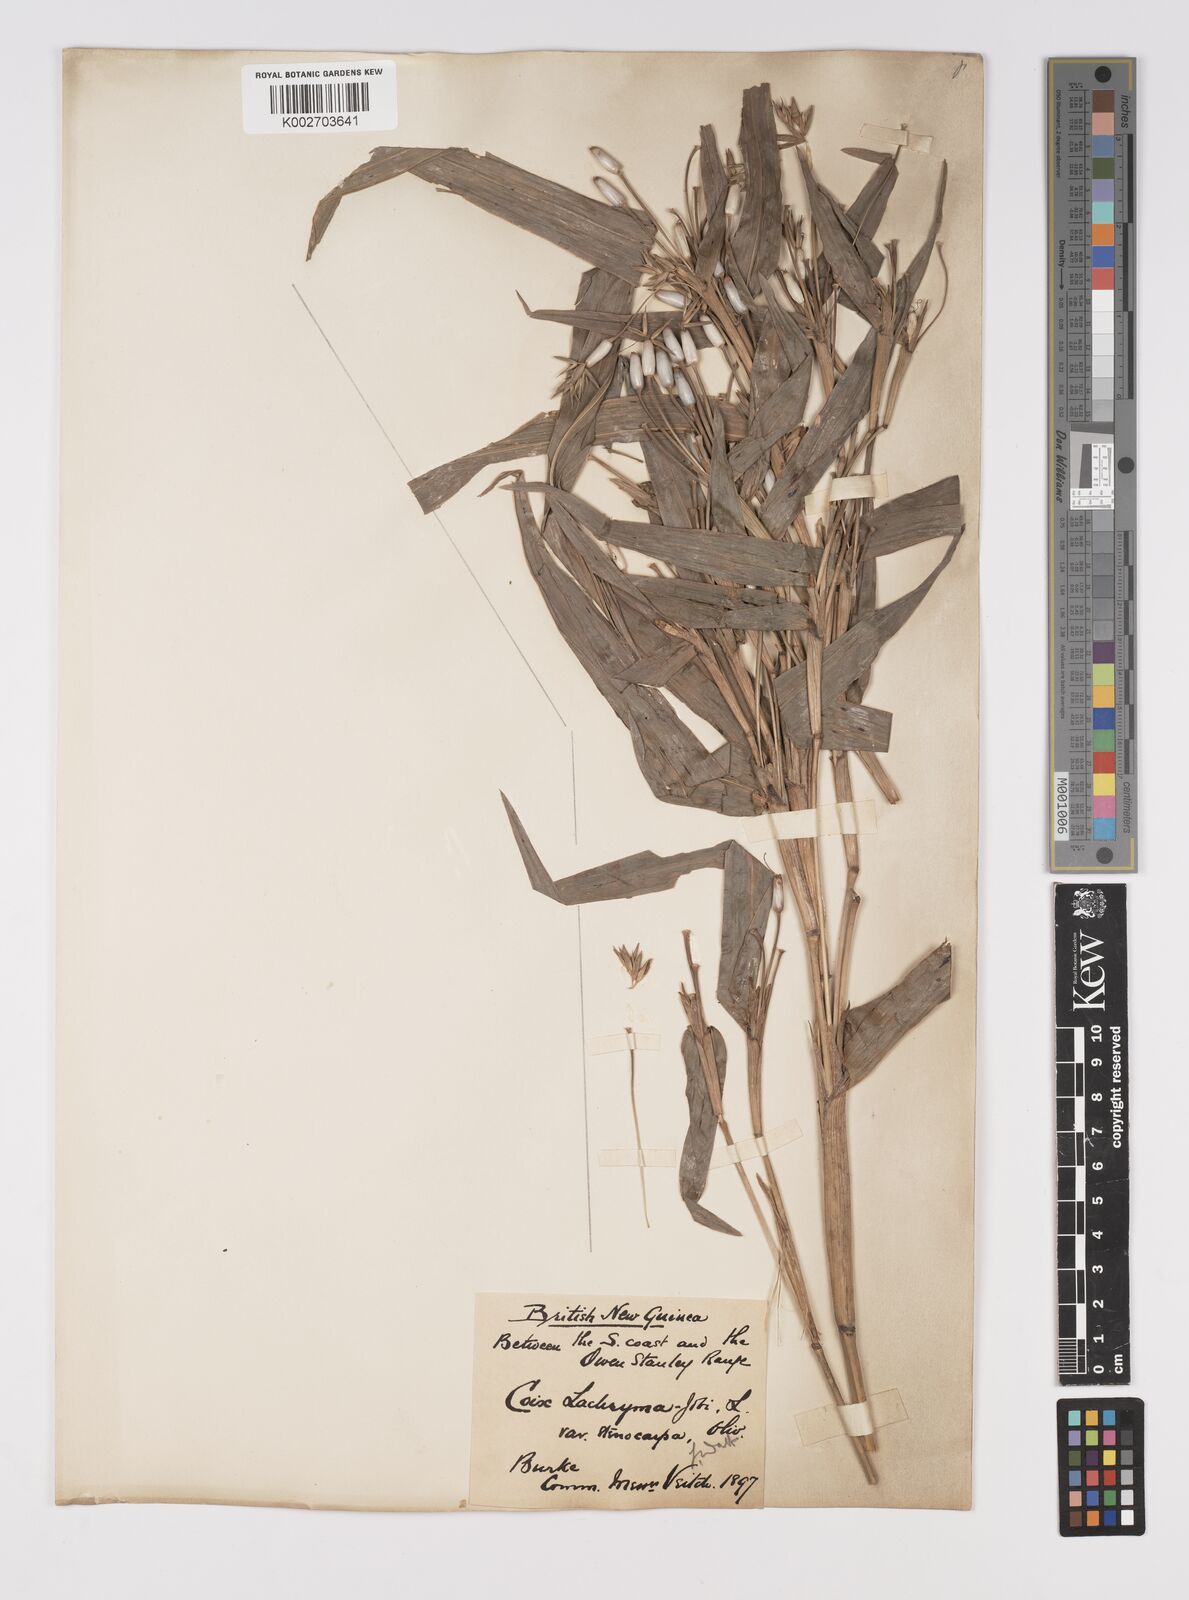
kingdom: Plantae
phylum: Tracheophyta
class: Liliopsida
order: Poales
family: Poaceae
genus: Coix
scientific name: Coix lacryma-jobi
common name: Job's tears
